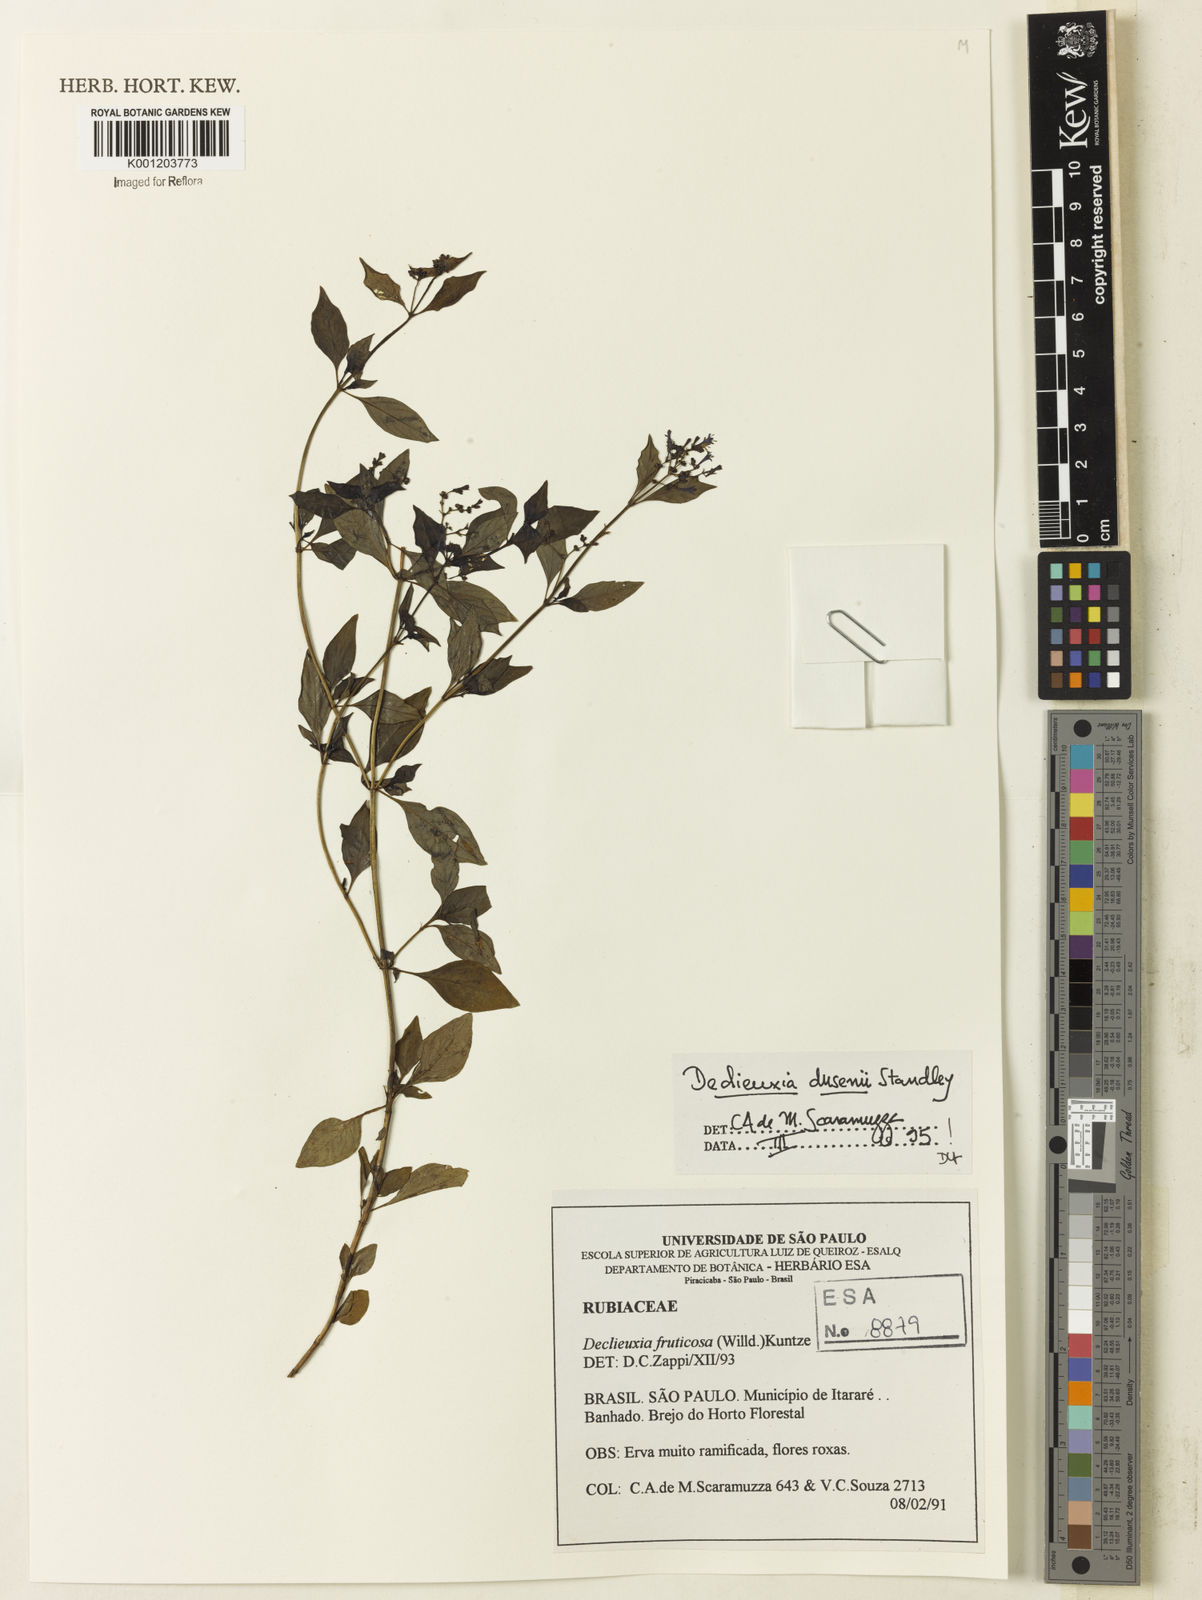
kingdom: Plantae
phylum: Tracheophyta
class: Magnoliopsida
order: Gentianales
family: Rubiaceae
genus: Declieuxia
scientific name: Declieuxia dusenii
